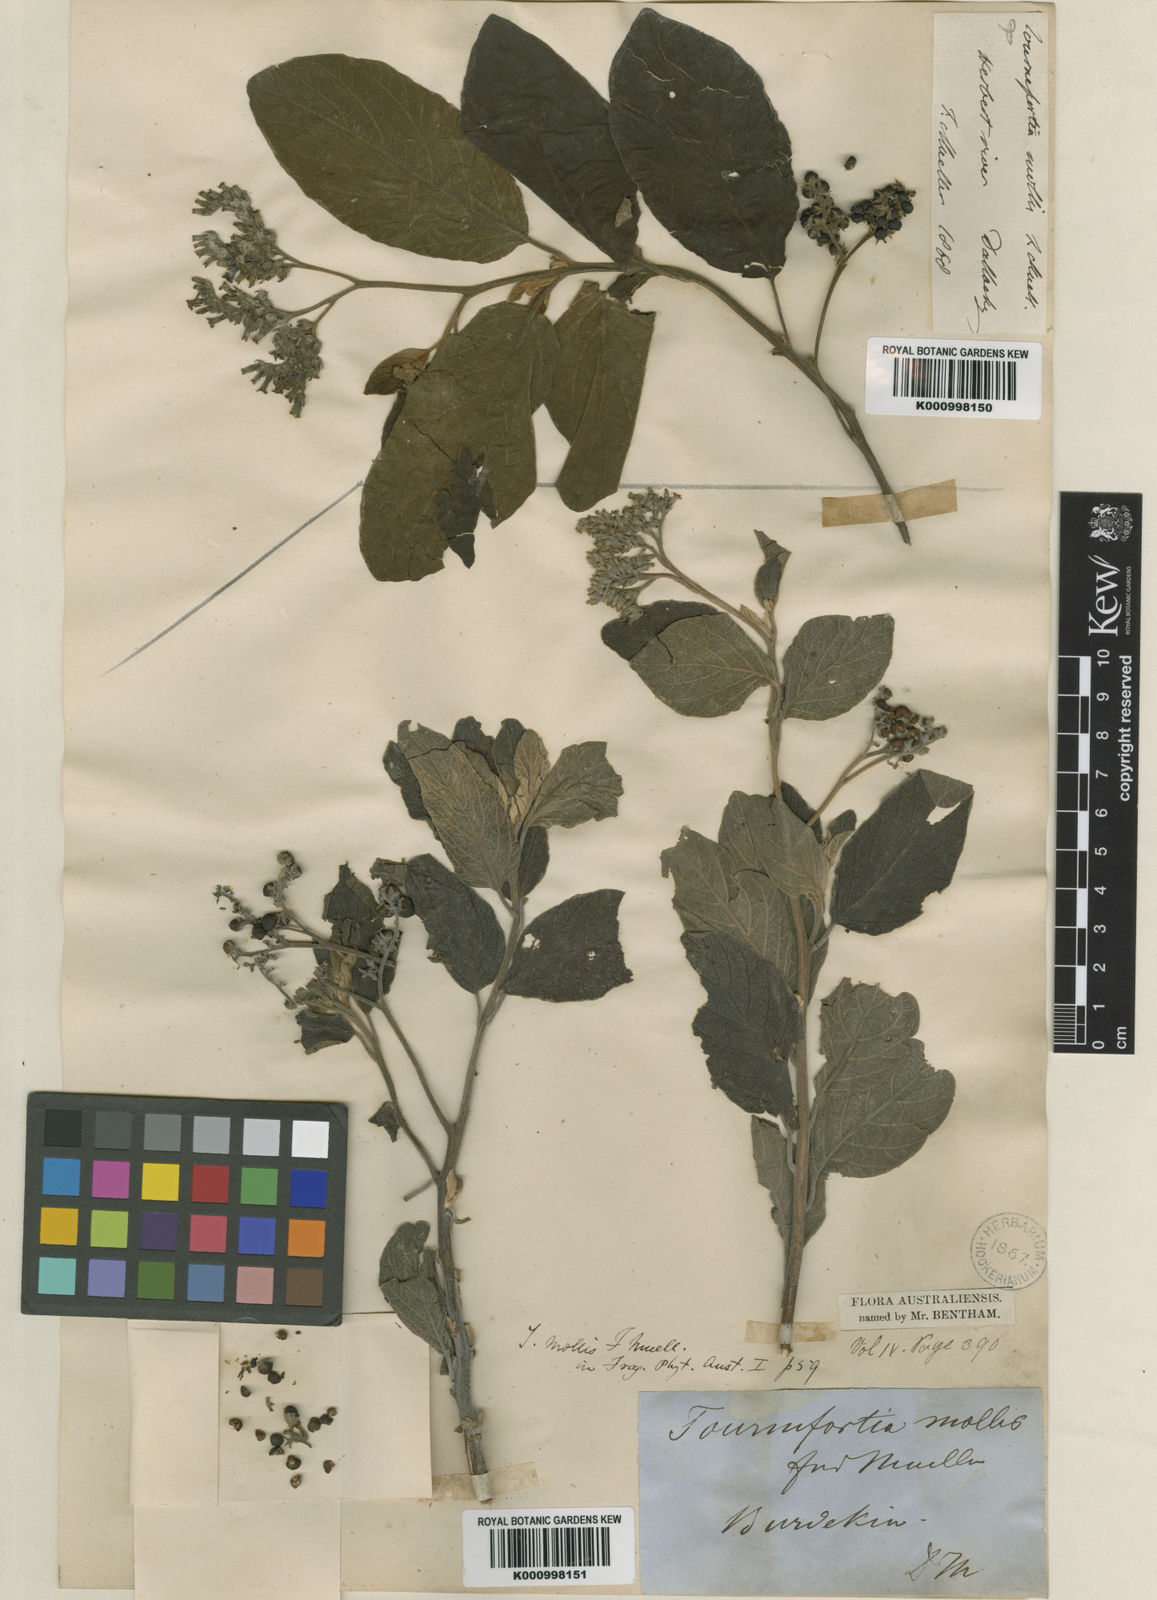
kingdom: Plantae
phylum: Tracheophyta
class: Magnoliopsida
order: Boraginales
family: Heliotropiaceae
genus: Heliotropium
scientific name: Heliotropium muelleri
